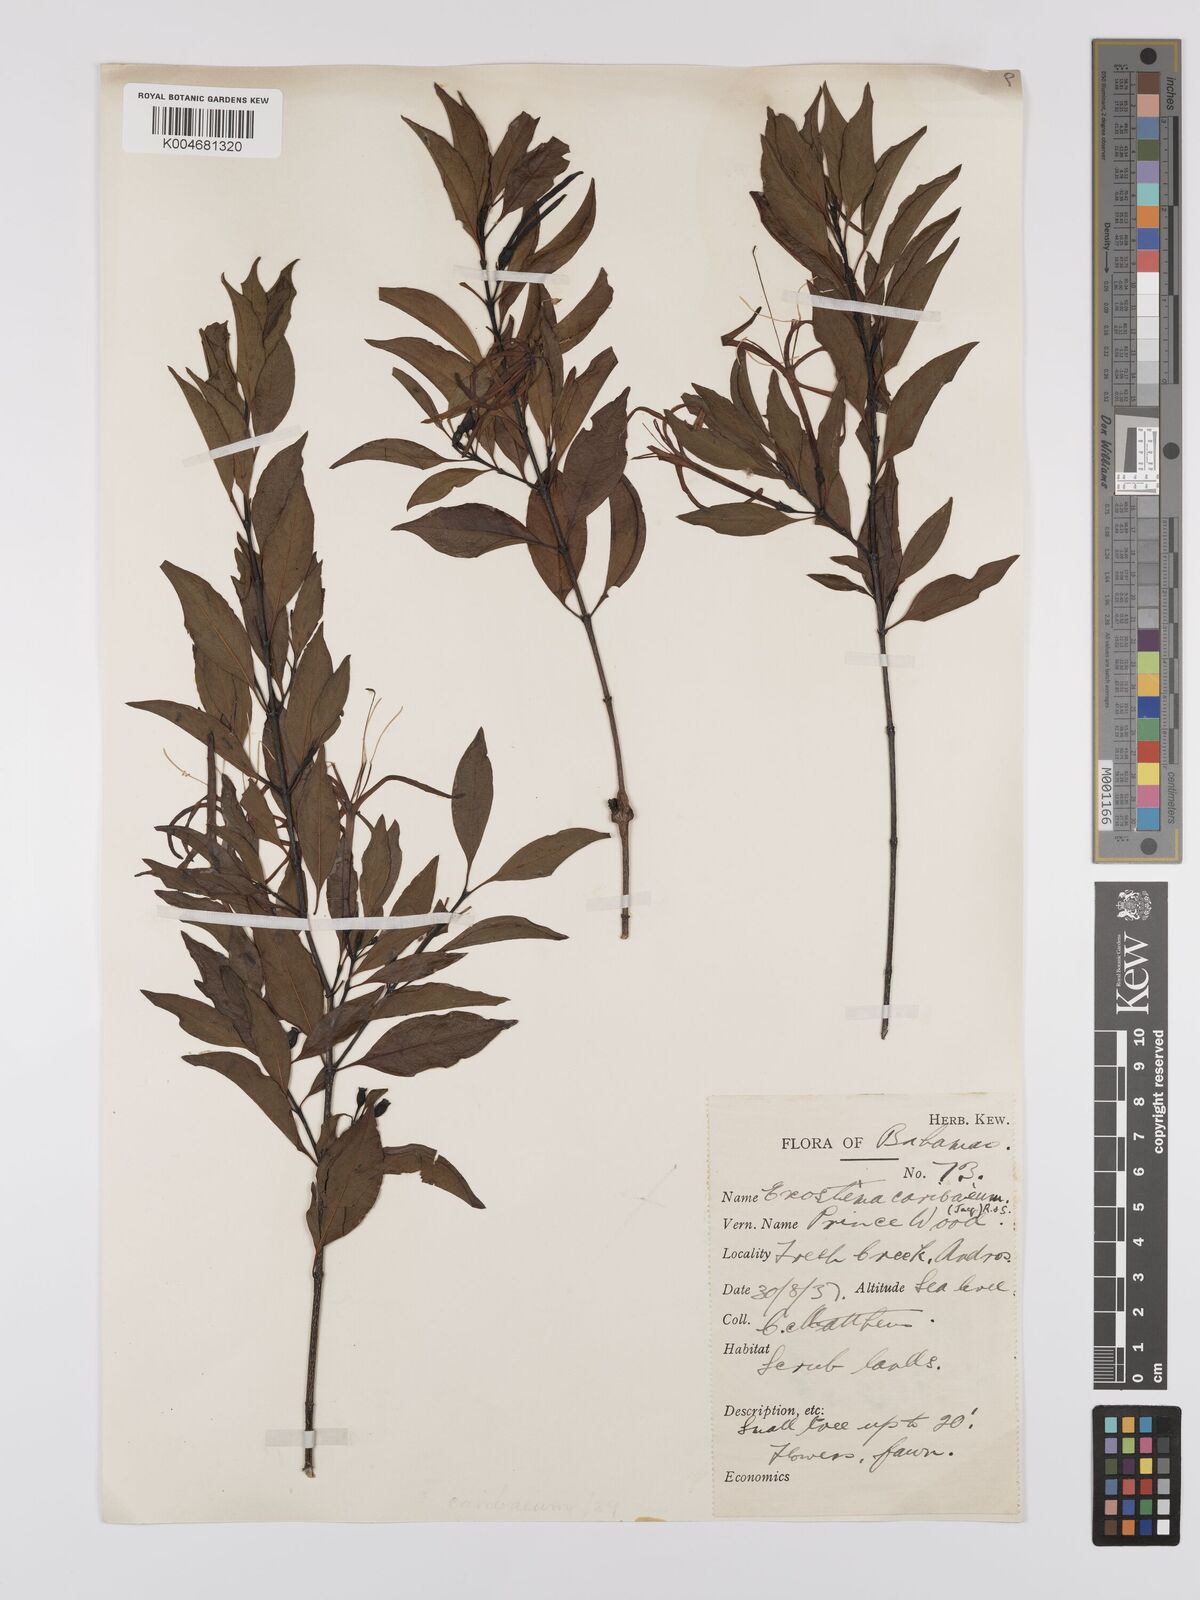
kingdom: Plantae
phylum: Tracheophyta
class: Magnoliopsida
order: Gentianales
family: Rubiaceae
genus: Exostema
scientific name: Exostema caribaeum
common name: Princewood
